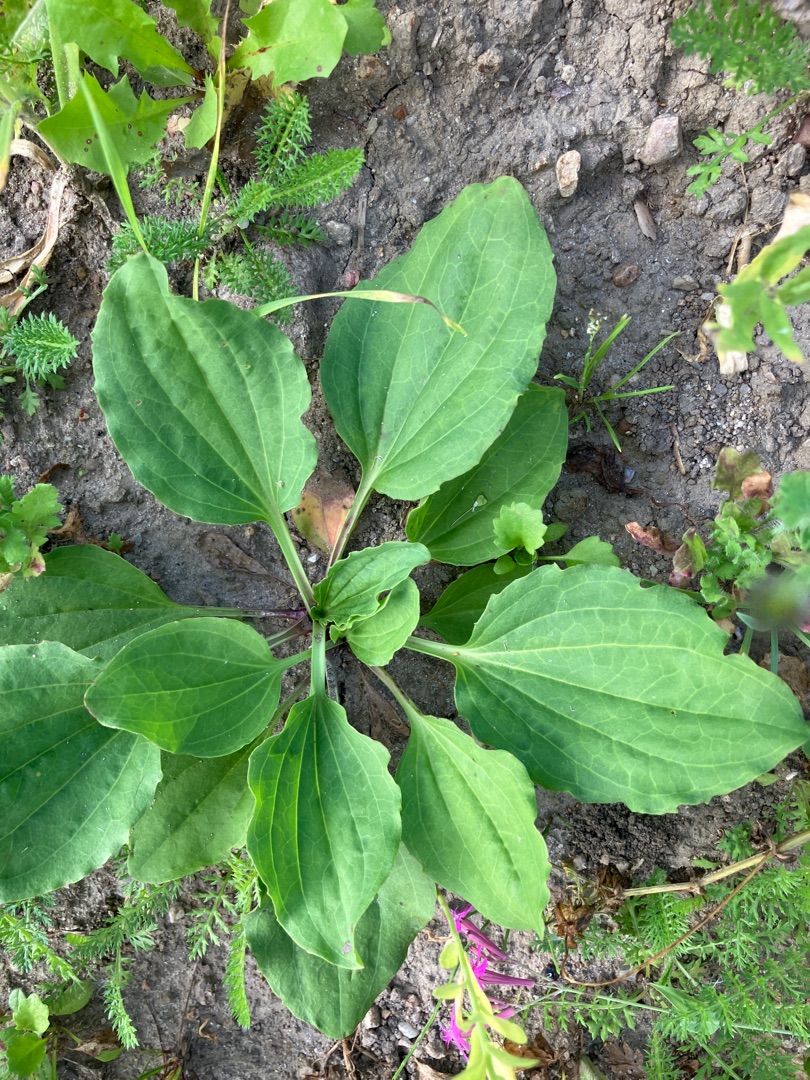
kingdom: Plantae
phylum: Tracheophyta
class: Magnoliopsida
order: Lamiales
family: Plantaginaceae
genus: Plantago
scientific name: Plantago major
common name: Glat vejbred
